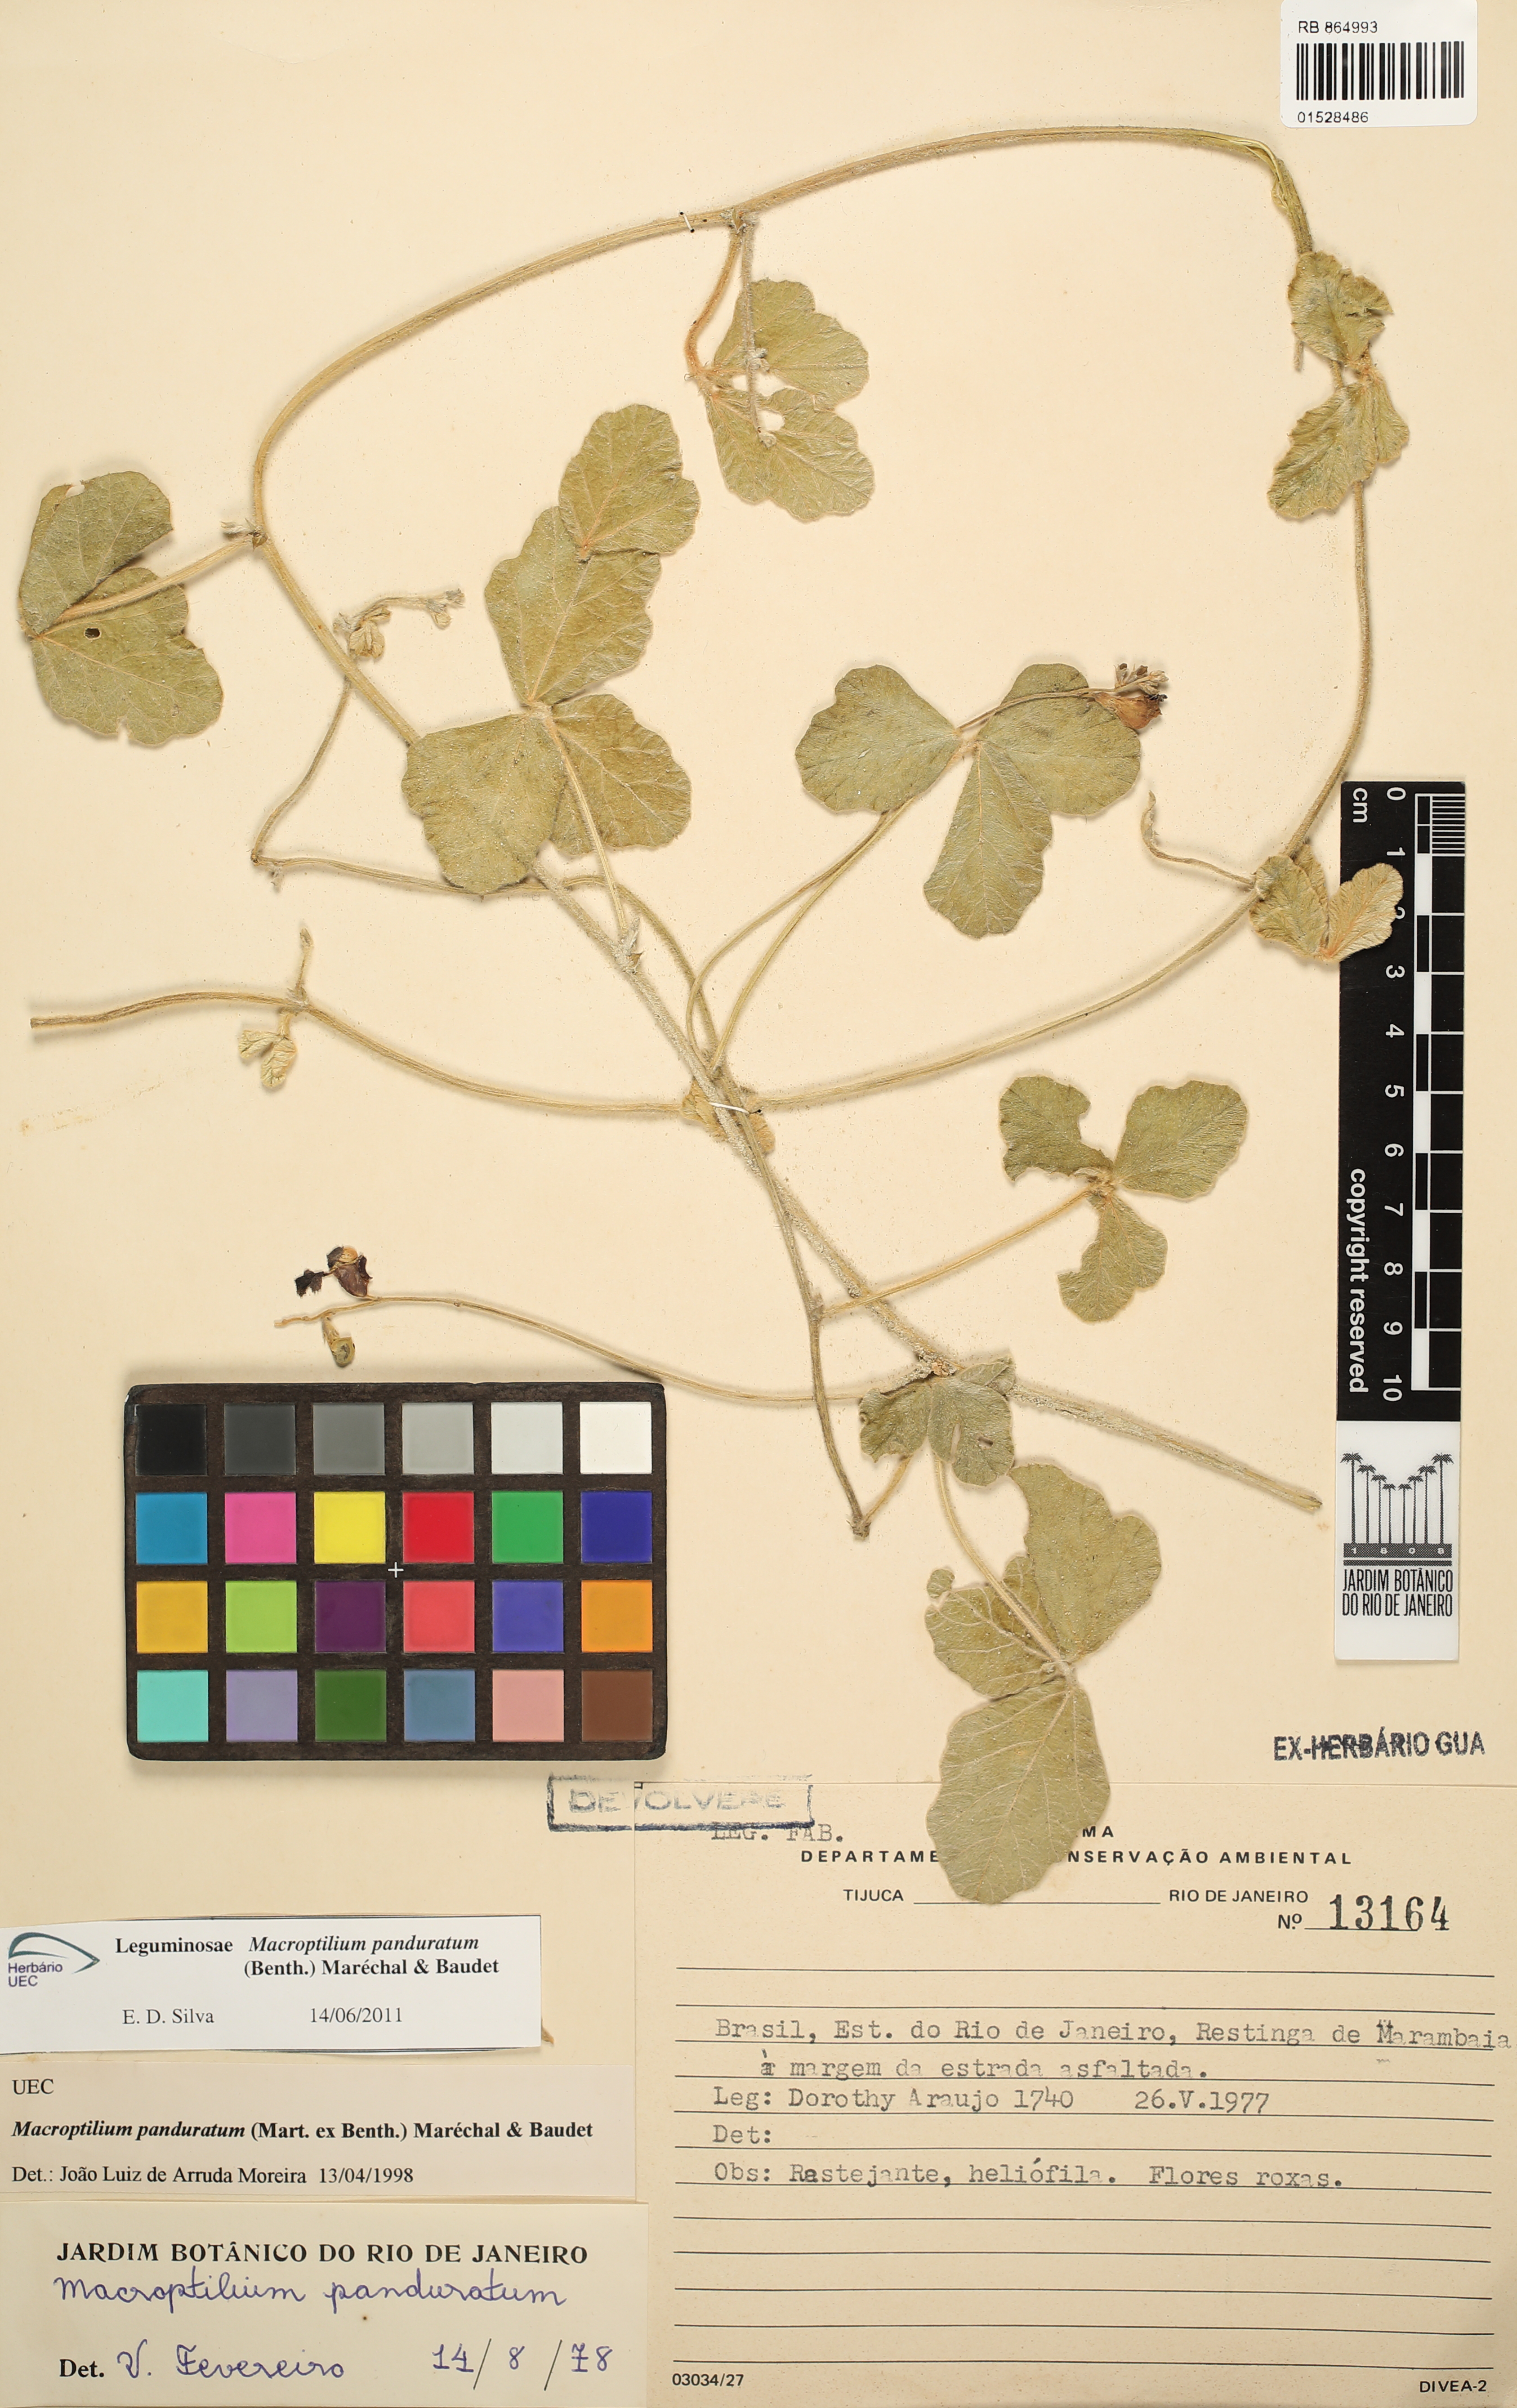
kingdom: Plantae
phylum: Tracheophyta
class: Magnoliopsida
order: Fabales
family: Fabaceae
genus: Macroptilium
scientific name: Macroptilium panduratum
